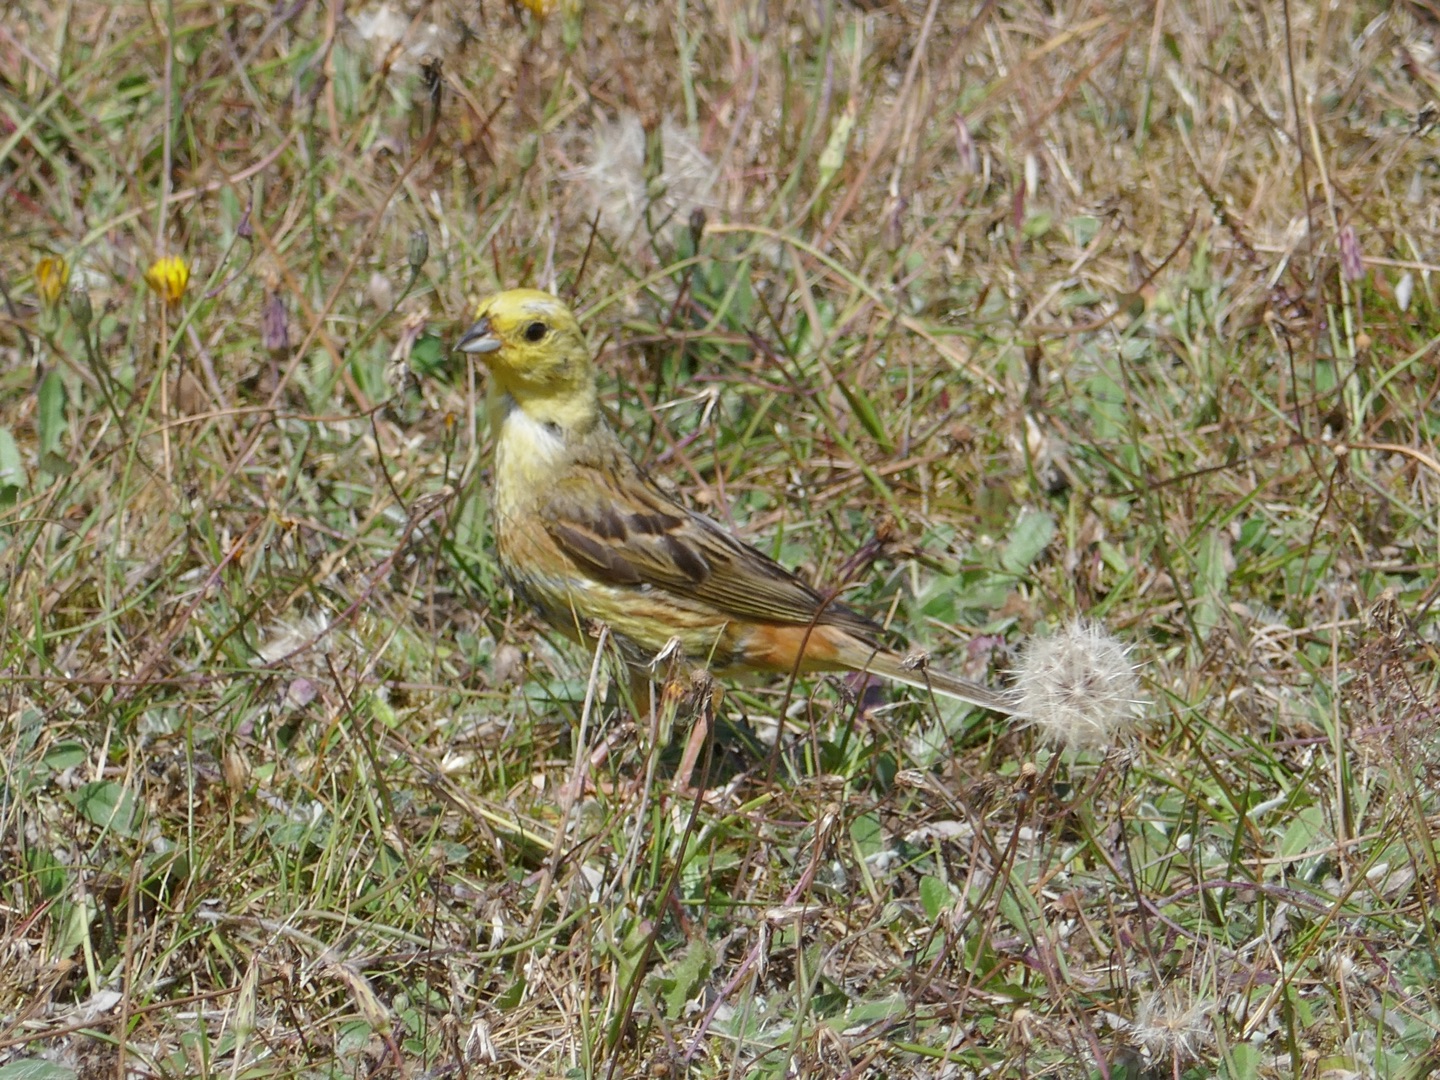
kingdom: Animalia
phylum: Chordata
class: Aves
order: Passeriformes
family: Emberizidae
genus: Emberiza
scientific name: Emberiza citrinella
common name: Gulspurv
